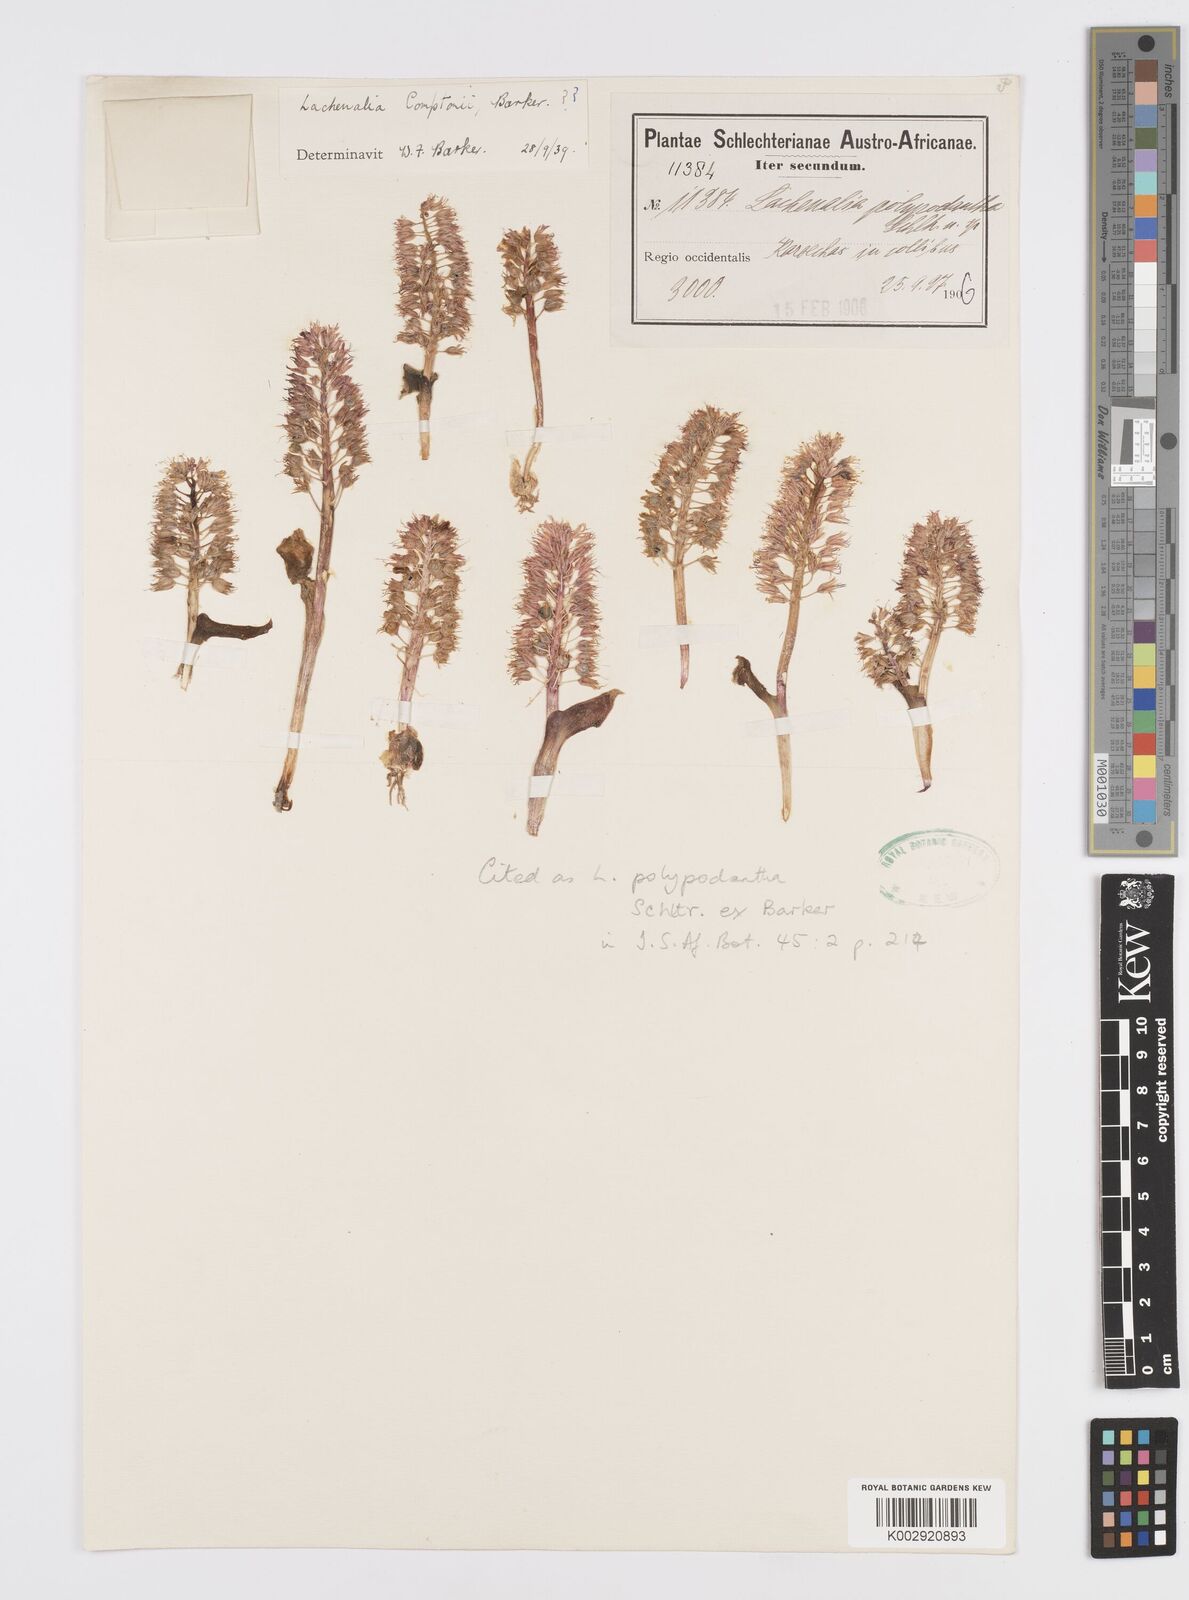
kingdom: Plantae
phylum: Tracheophyta
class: Liliopsida
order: Asparagales
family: Asparagaceae
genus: Lachenalia
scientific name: Lachenalia polypodantha
